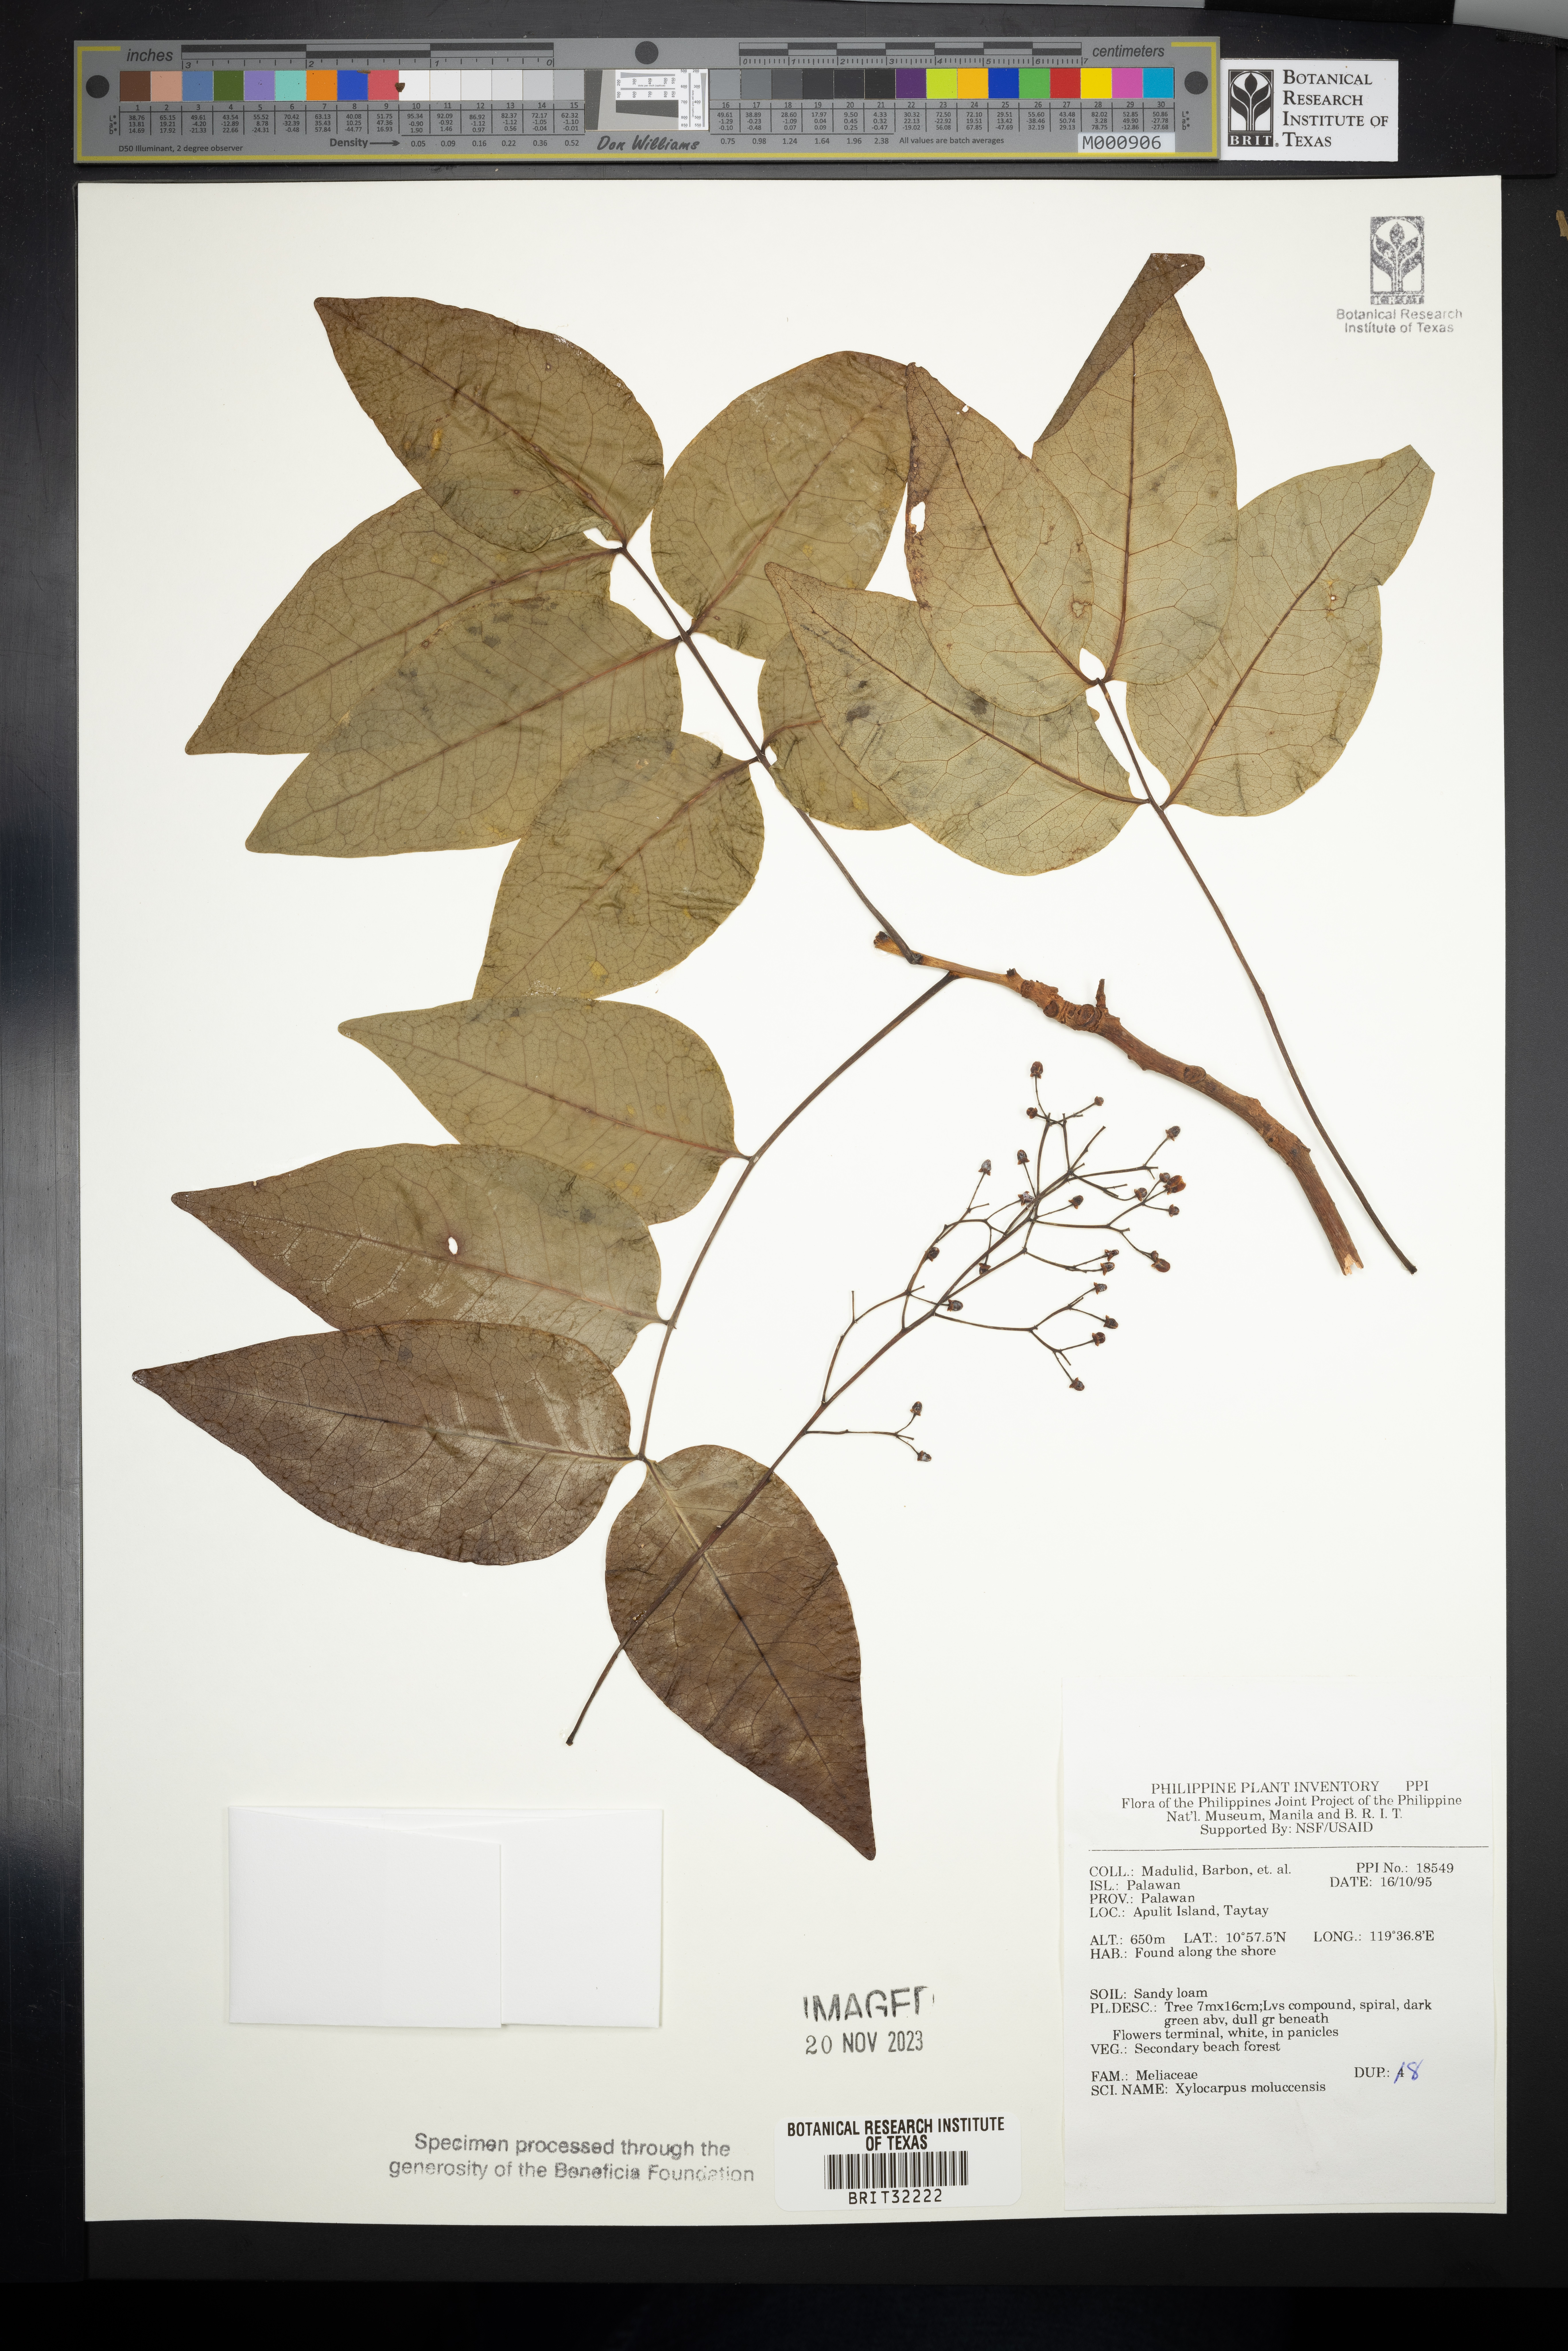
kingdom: Plantae
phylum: Tracheophyta
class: Magnoliopsida
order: Sapindales
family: Meliaceae
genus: Xylocarpus
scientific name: Xylocarpus moluccensis
